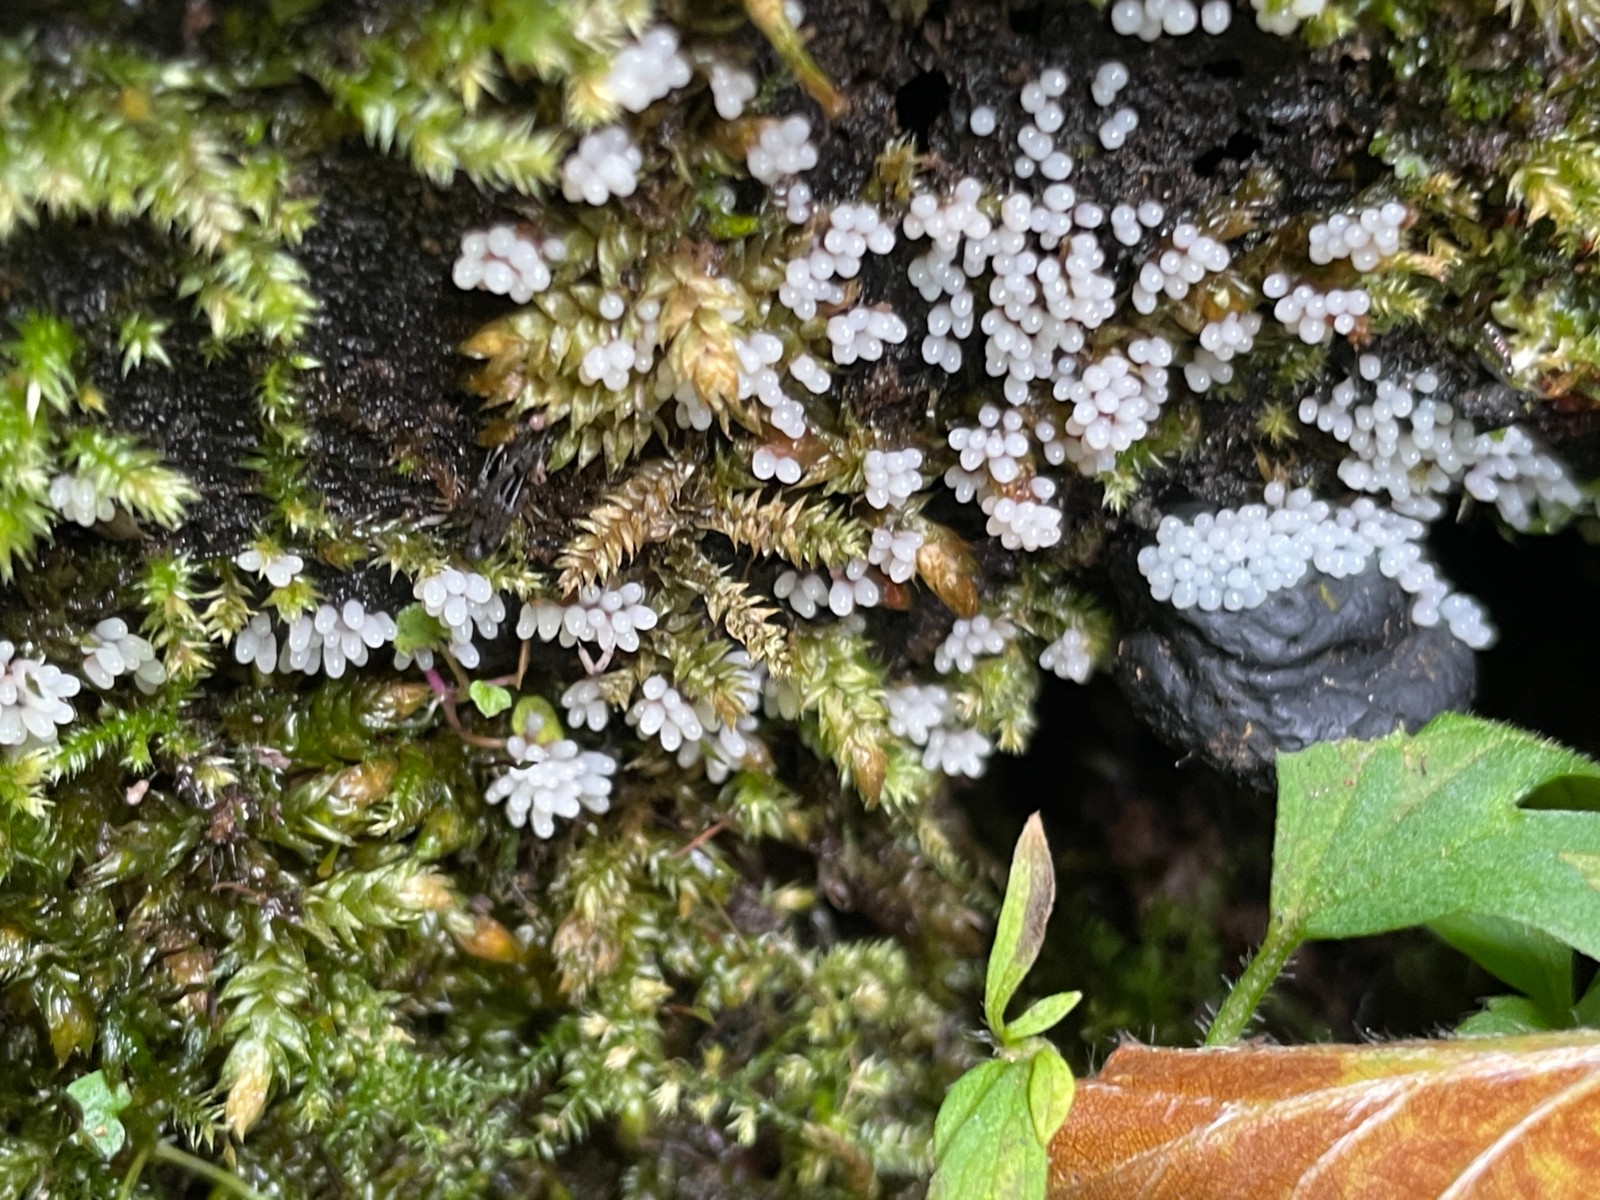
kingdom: Protozoa
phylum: Mycetozoa
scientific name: Mycetozoa
